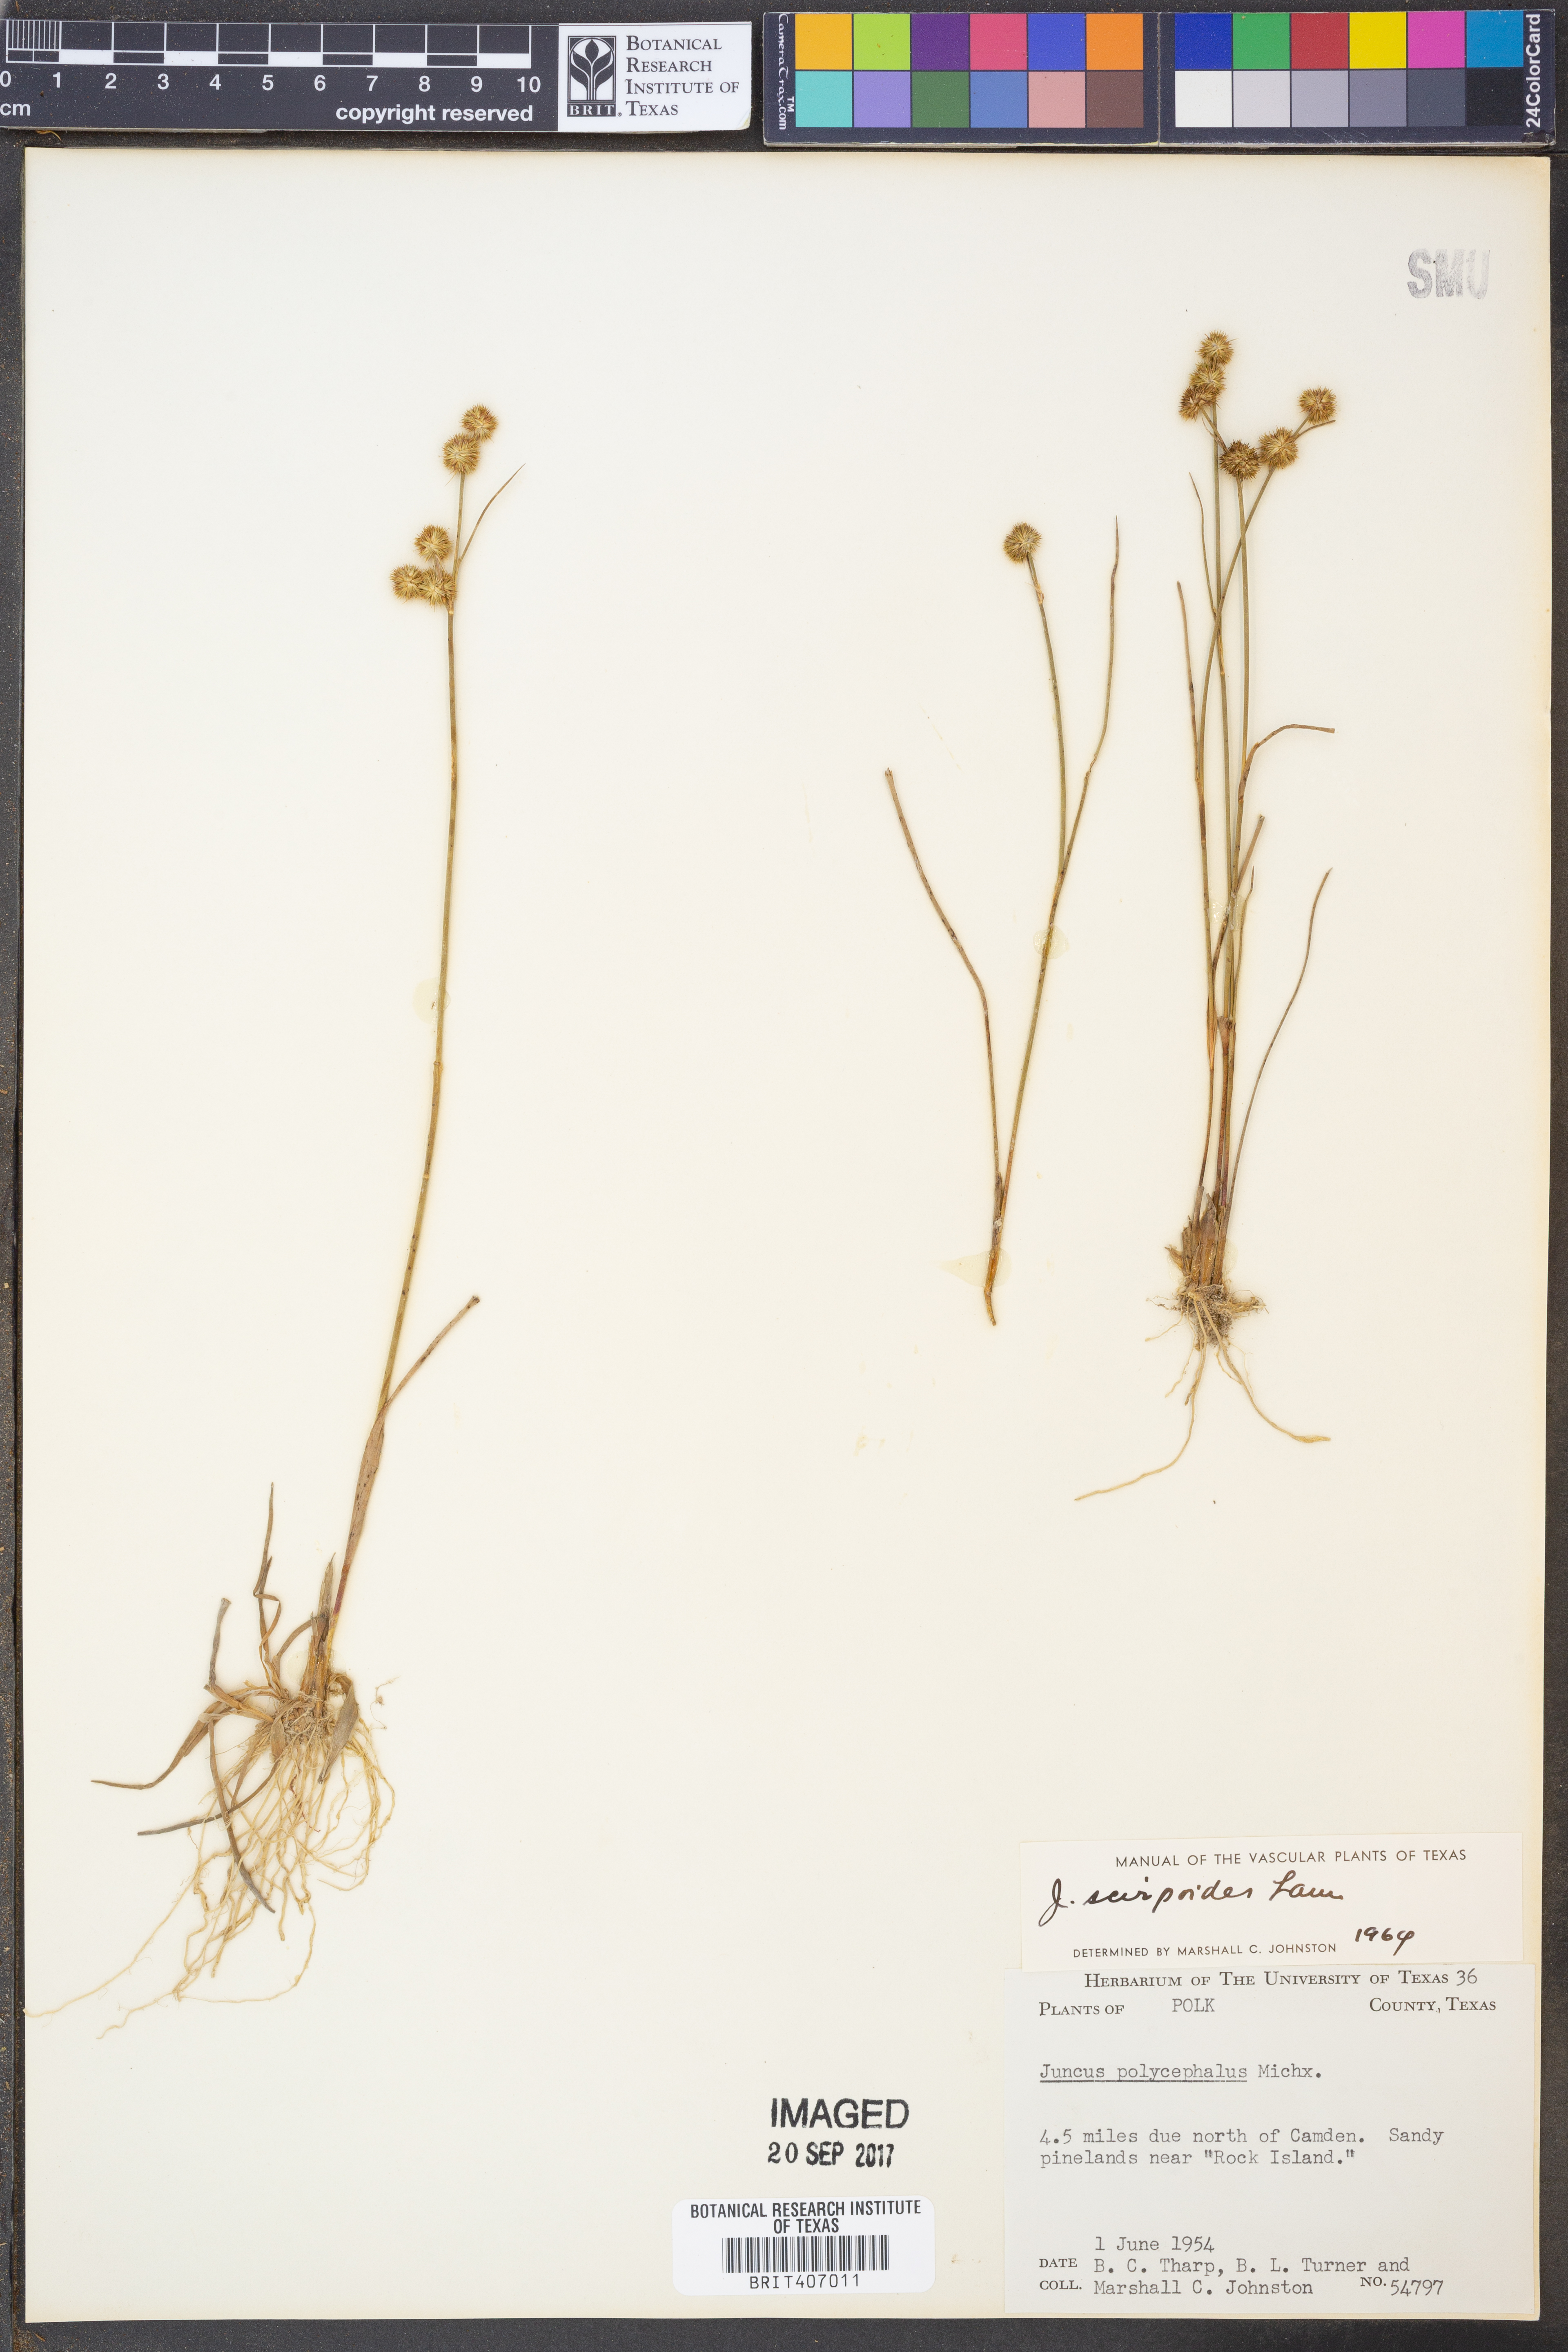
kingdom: Plantae
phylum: Tracheophyta
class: Liliopsida
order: Poales
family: Juncaceae
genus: Juncus
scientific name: Juncus scirpoides
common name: Needlepod rush
